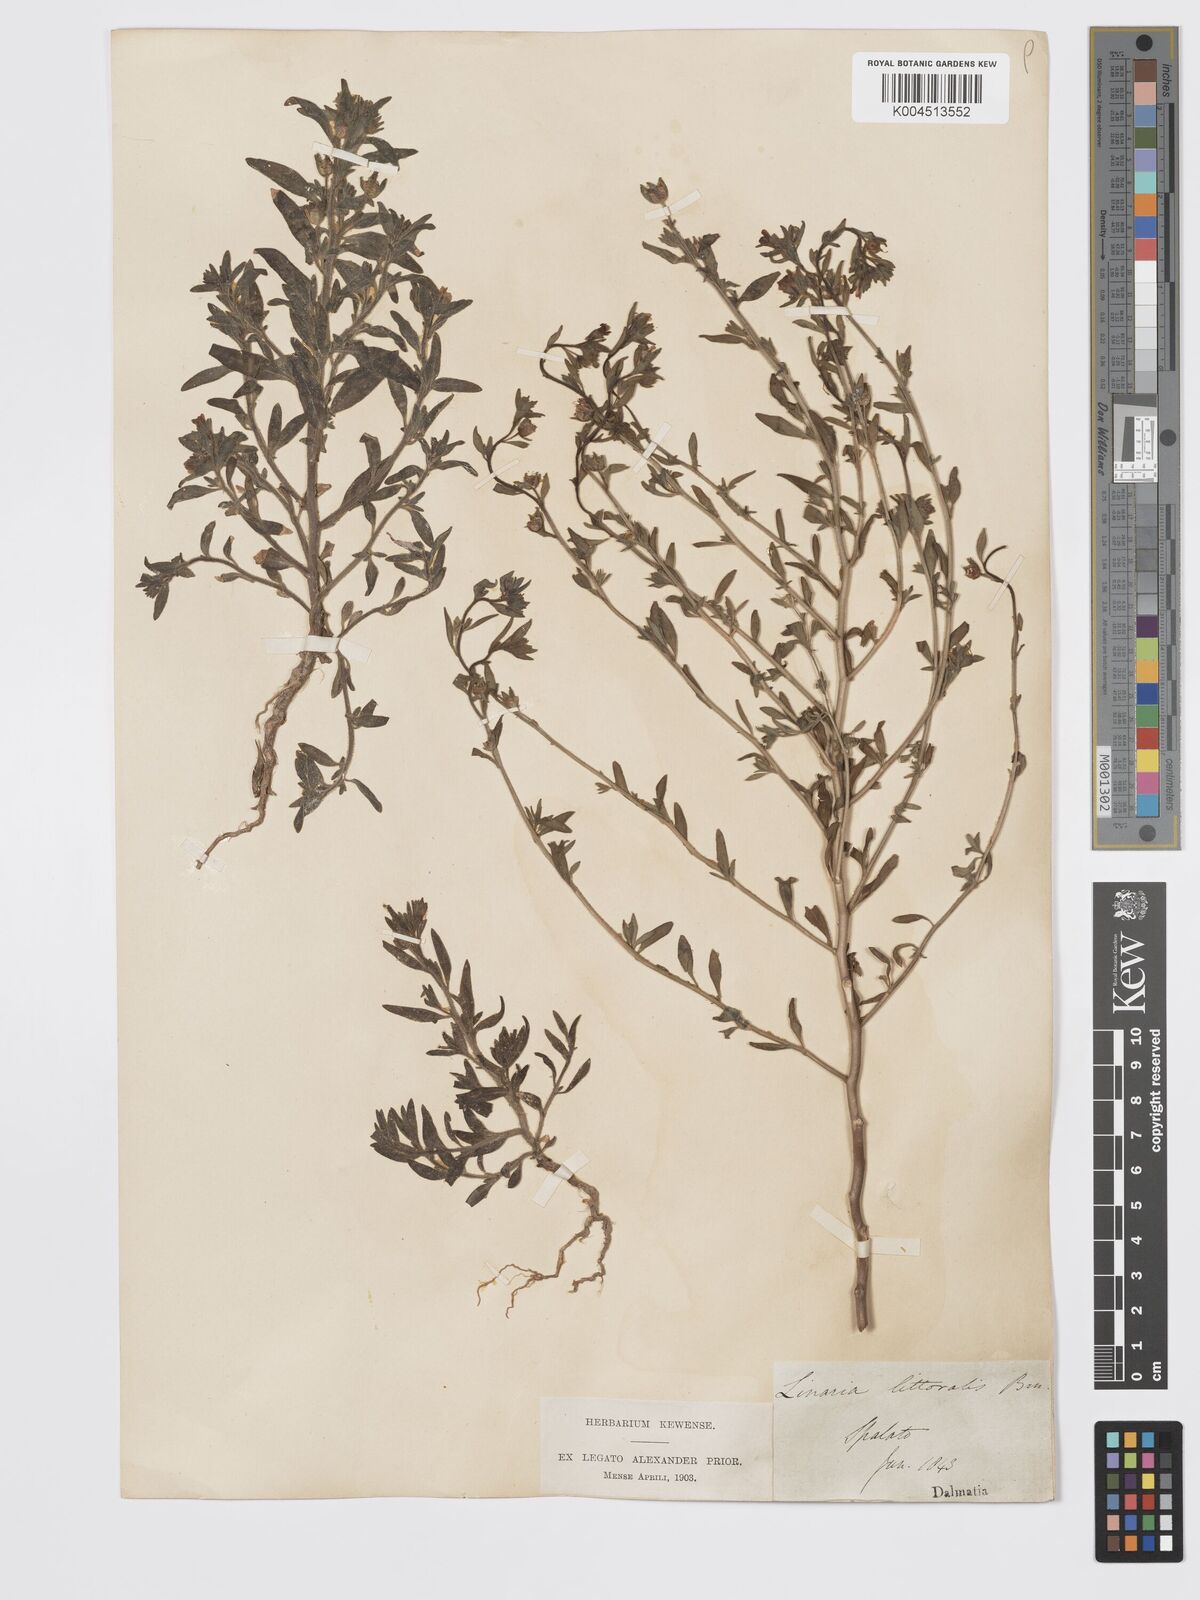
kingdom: Plantae
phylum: Tracheophyta
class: Magnoliopsida
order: Lamiales
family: Plantaginaceae
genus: Chaenorhinum
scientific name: Chaenorhinum minus
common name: Dwarf snapdragon
